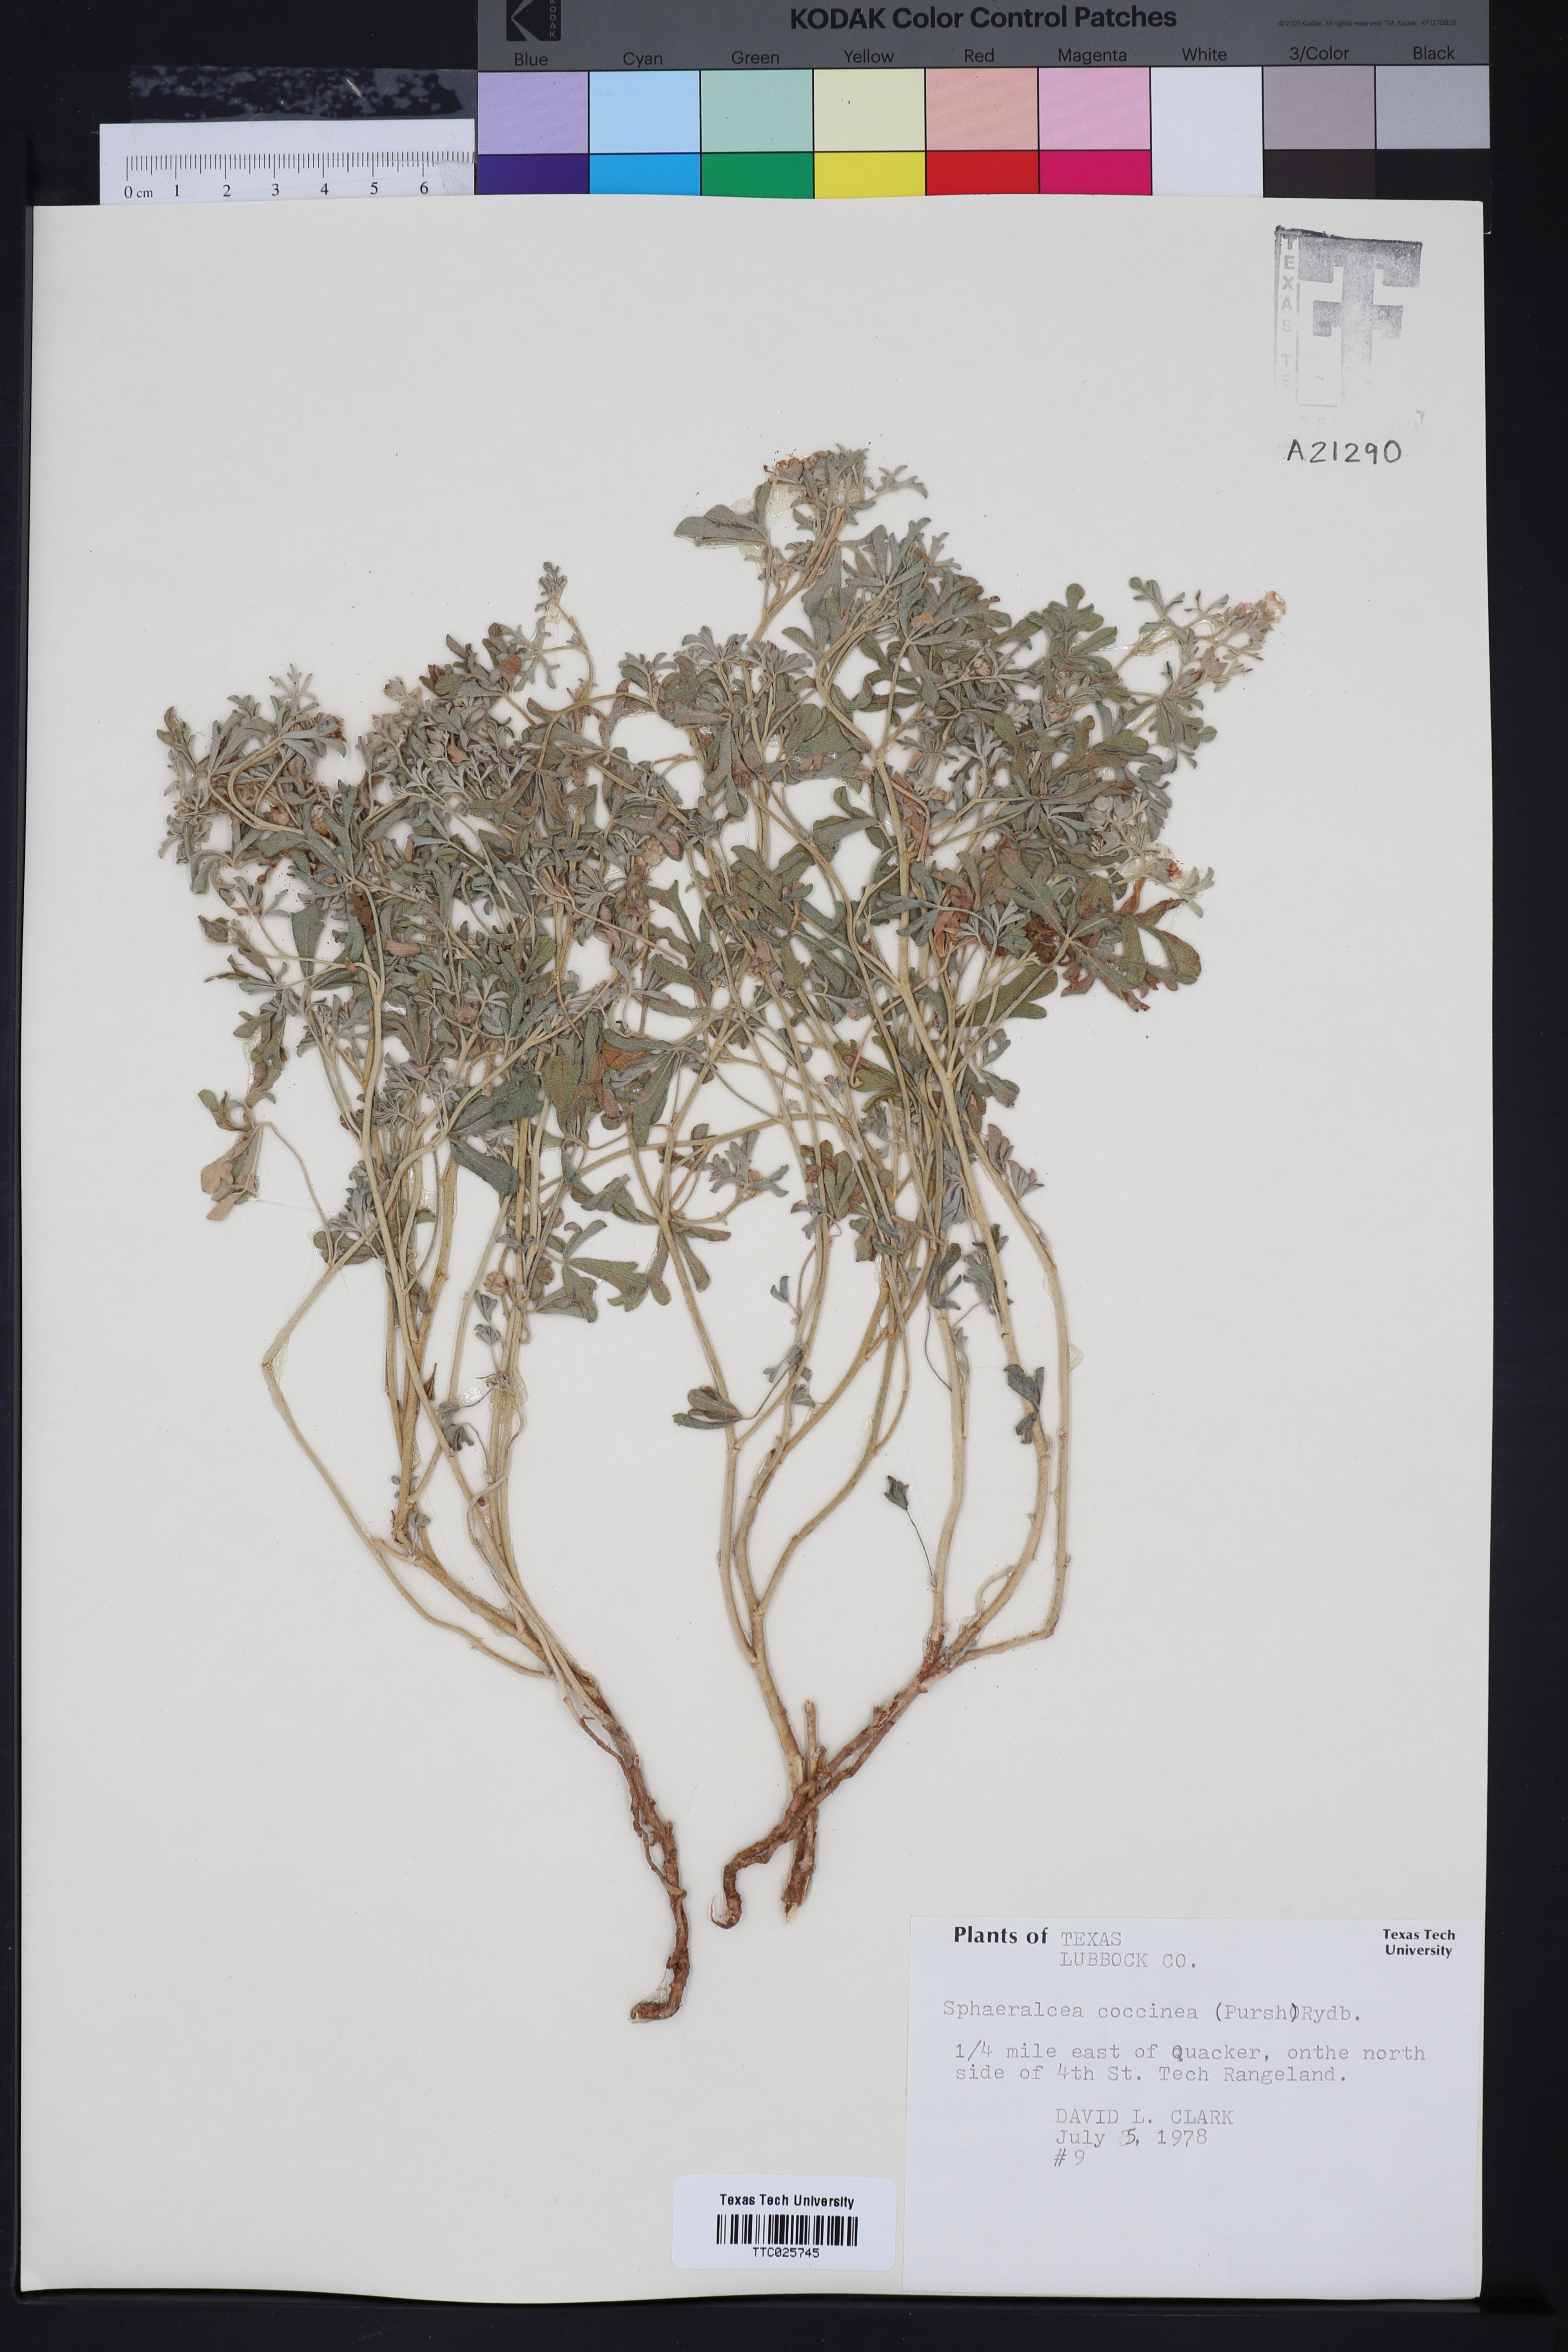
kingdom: Plantae
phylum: Tracheophyta
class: Magnoliopsida
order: Malvales
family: Malvaceae
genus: Sphaeralcea
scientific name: Sphaeralcea coccinea
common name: Moss-rose
